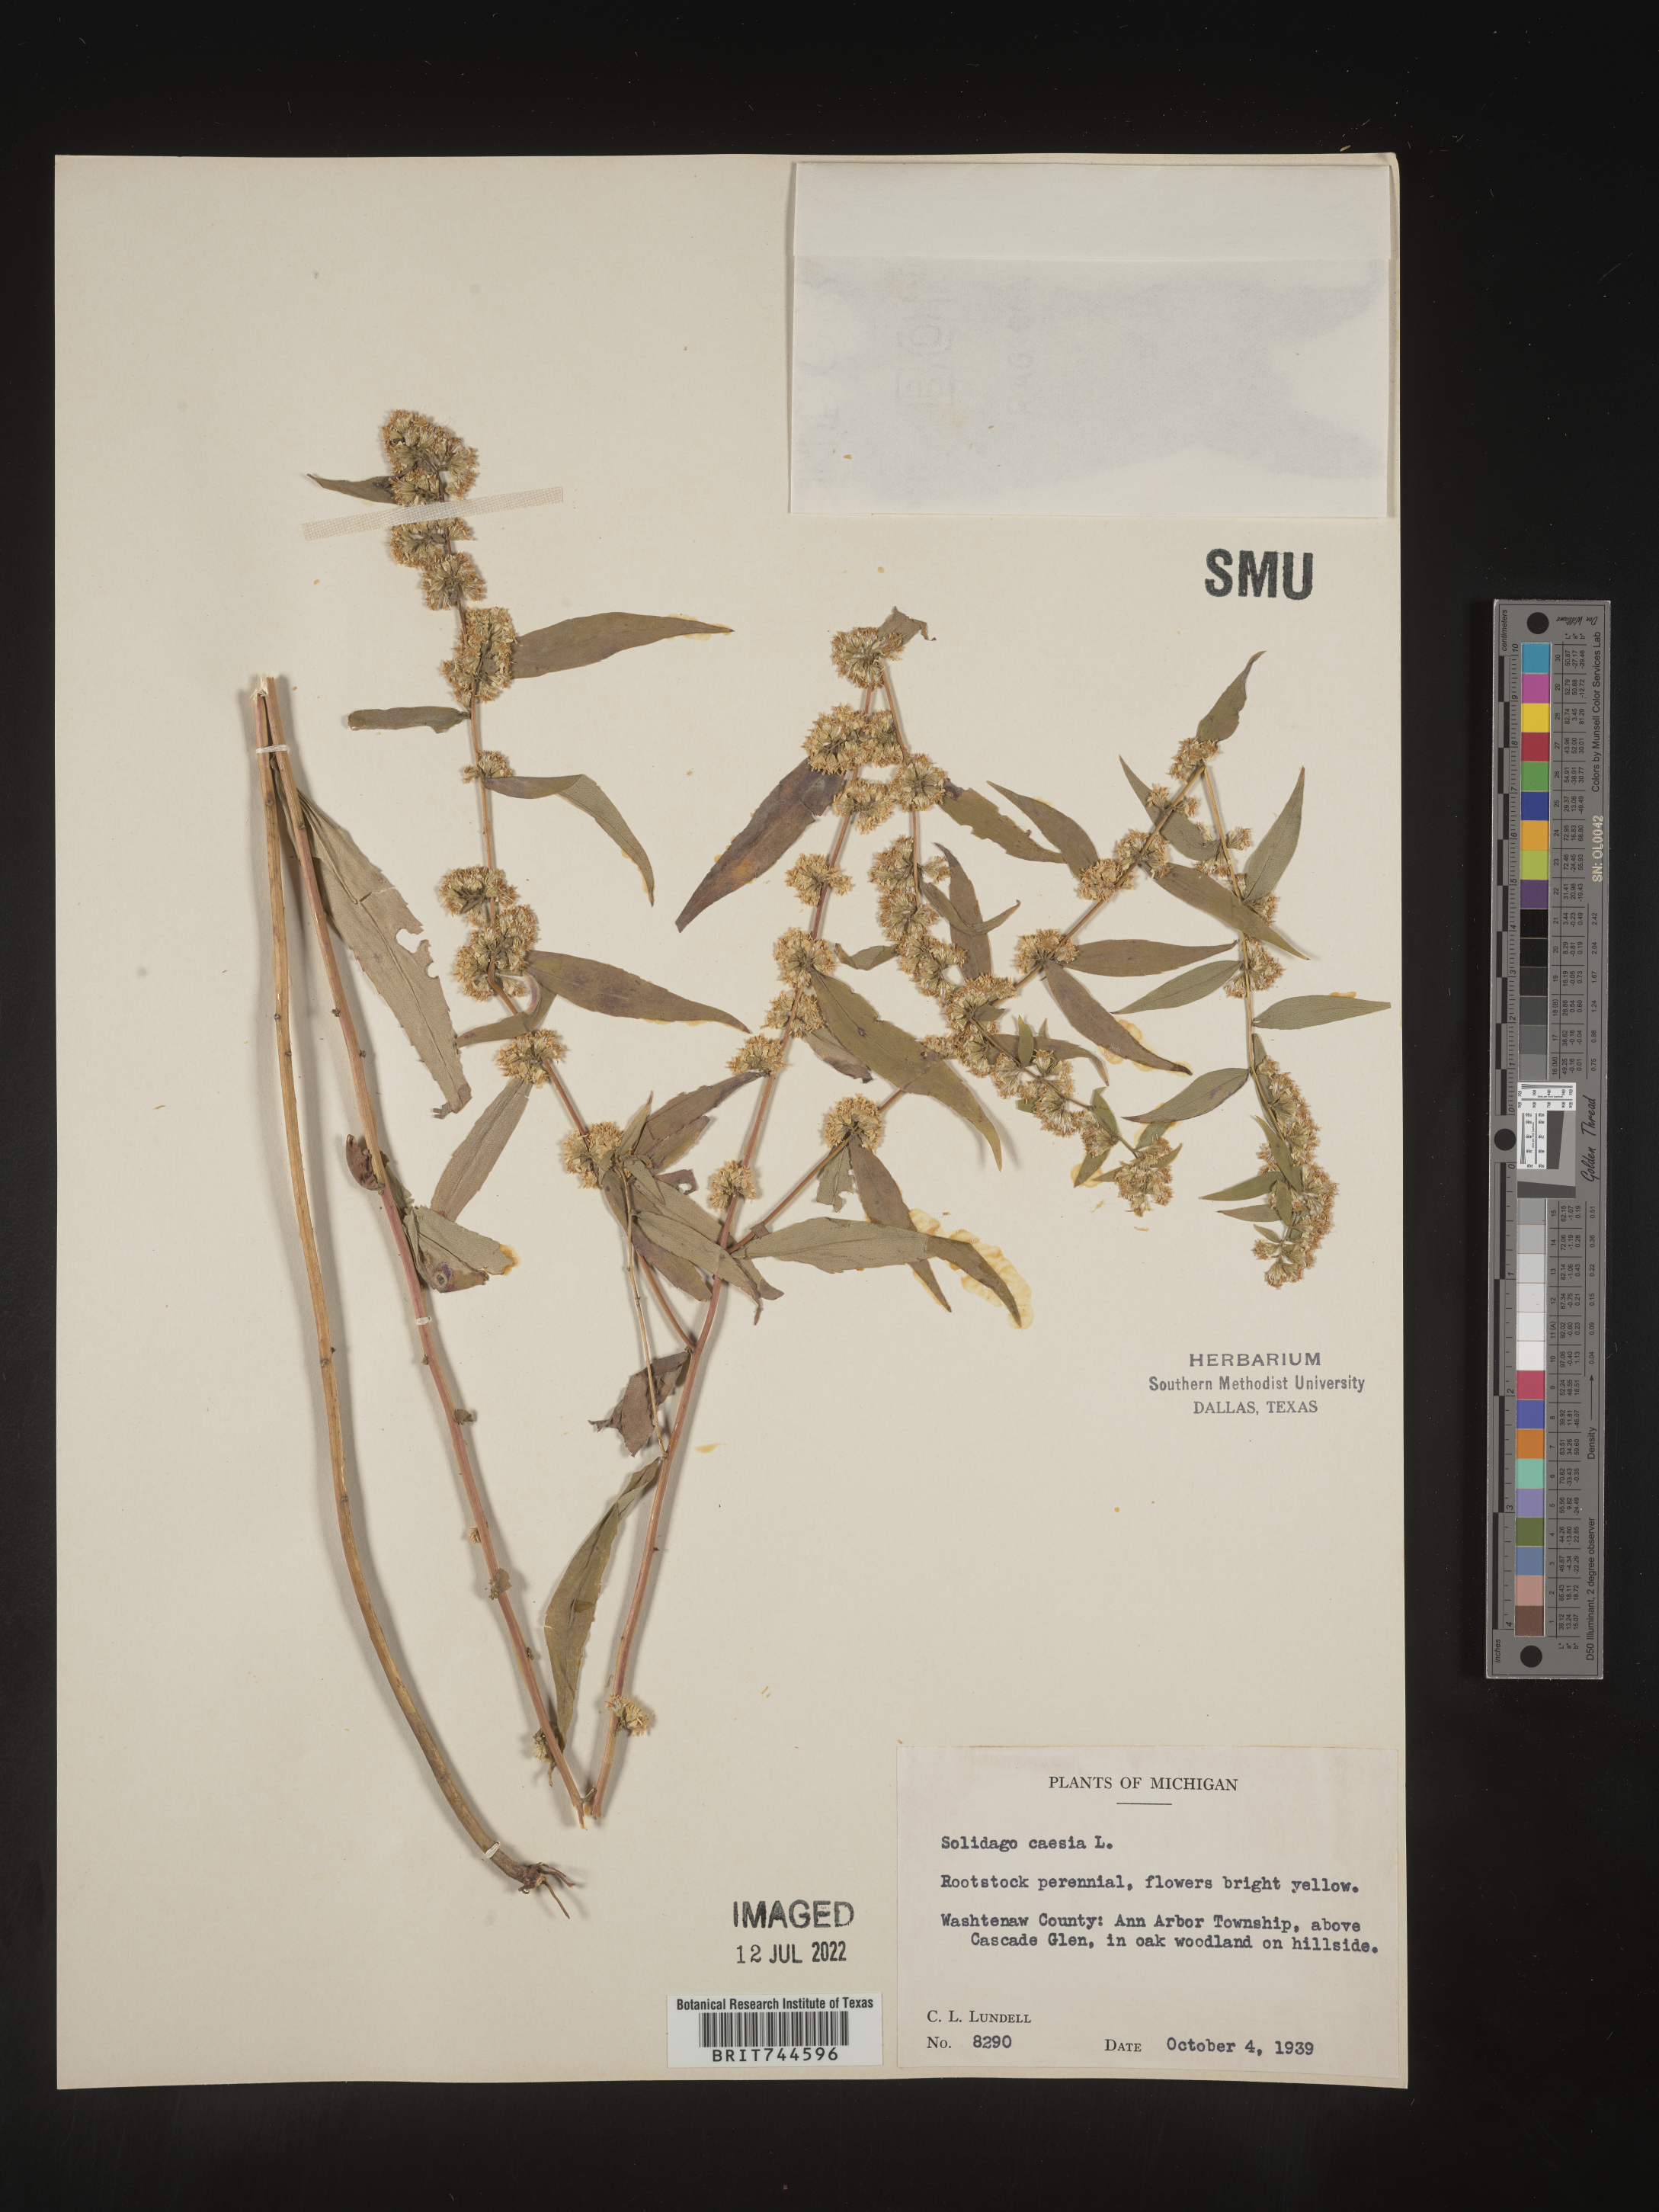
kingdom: Plantae
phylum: Tracheophyta
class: Magnoliopsida
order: Asterales
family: Asteraceae
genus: Solidago
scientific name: Solidago caesia
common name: Woodland goldenrod
